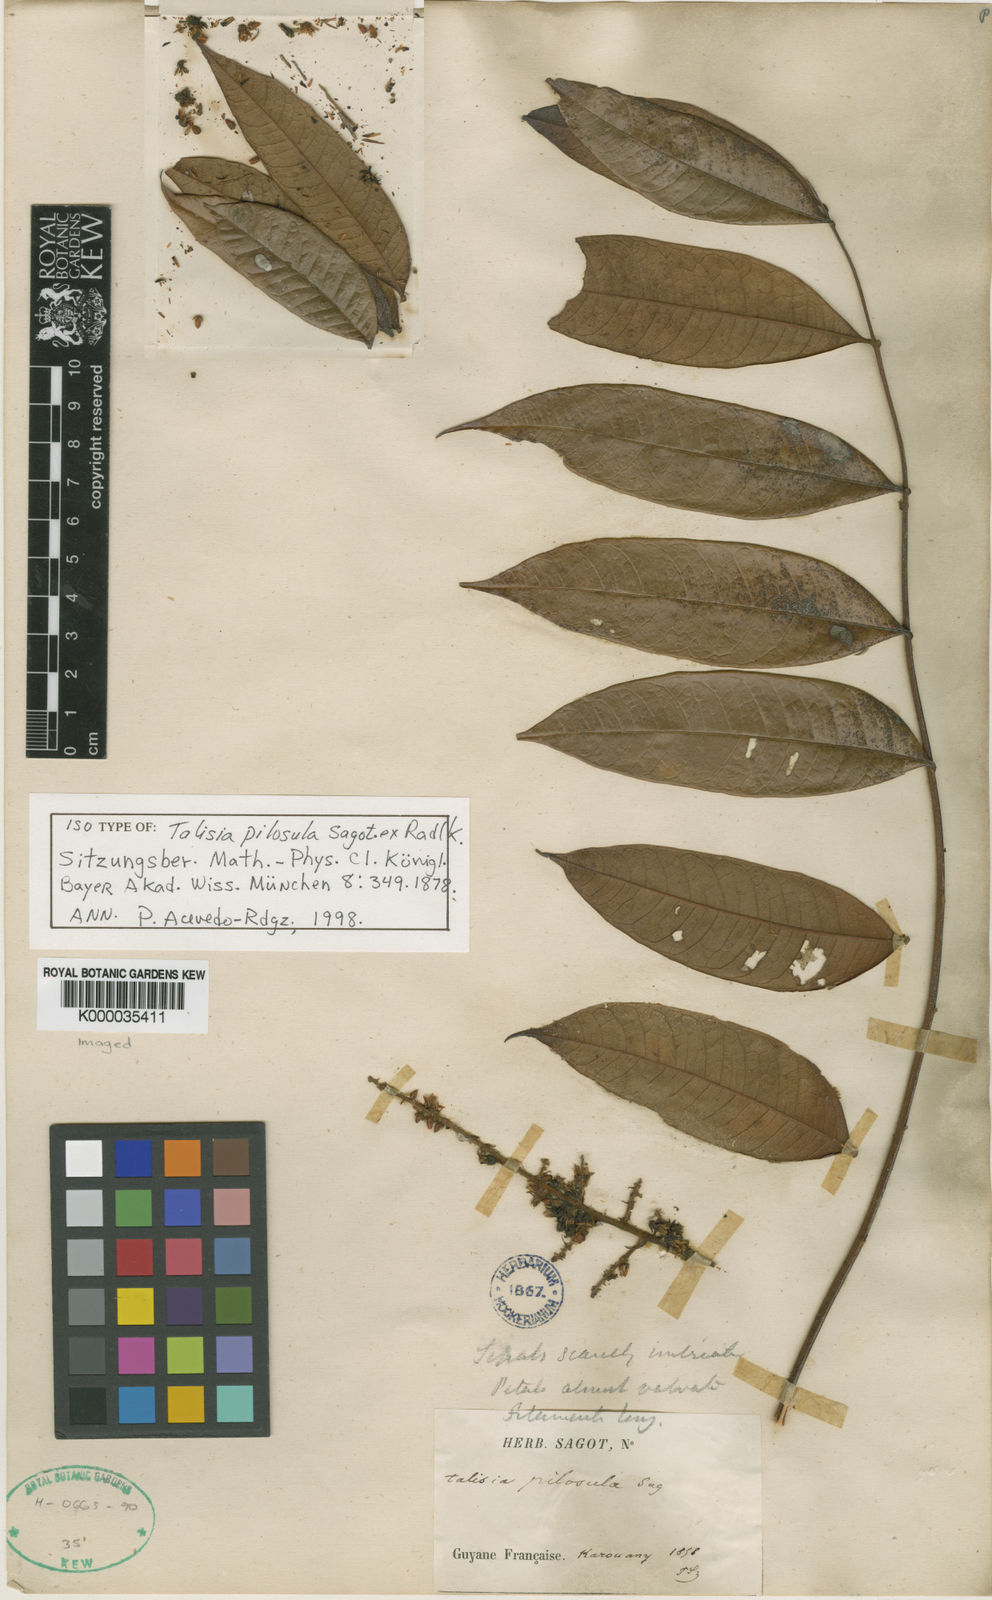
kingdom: Plantae
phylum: Tracheophyta
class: Magnoliopsida
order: Sapindales
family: Sapindaceae
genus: Talisia
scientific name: Talisia
